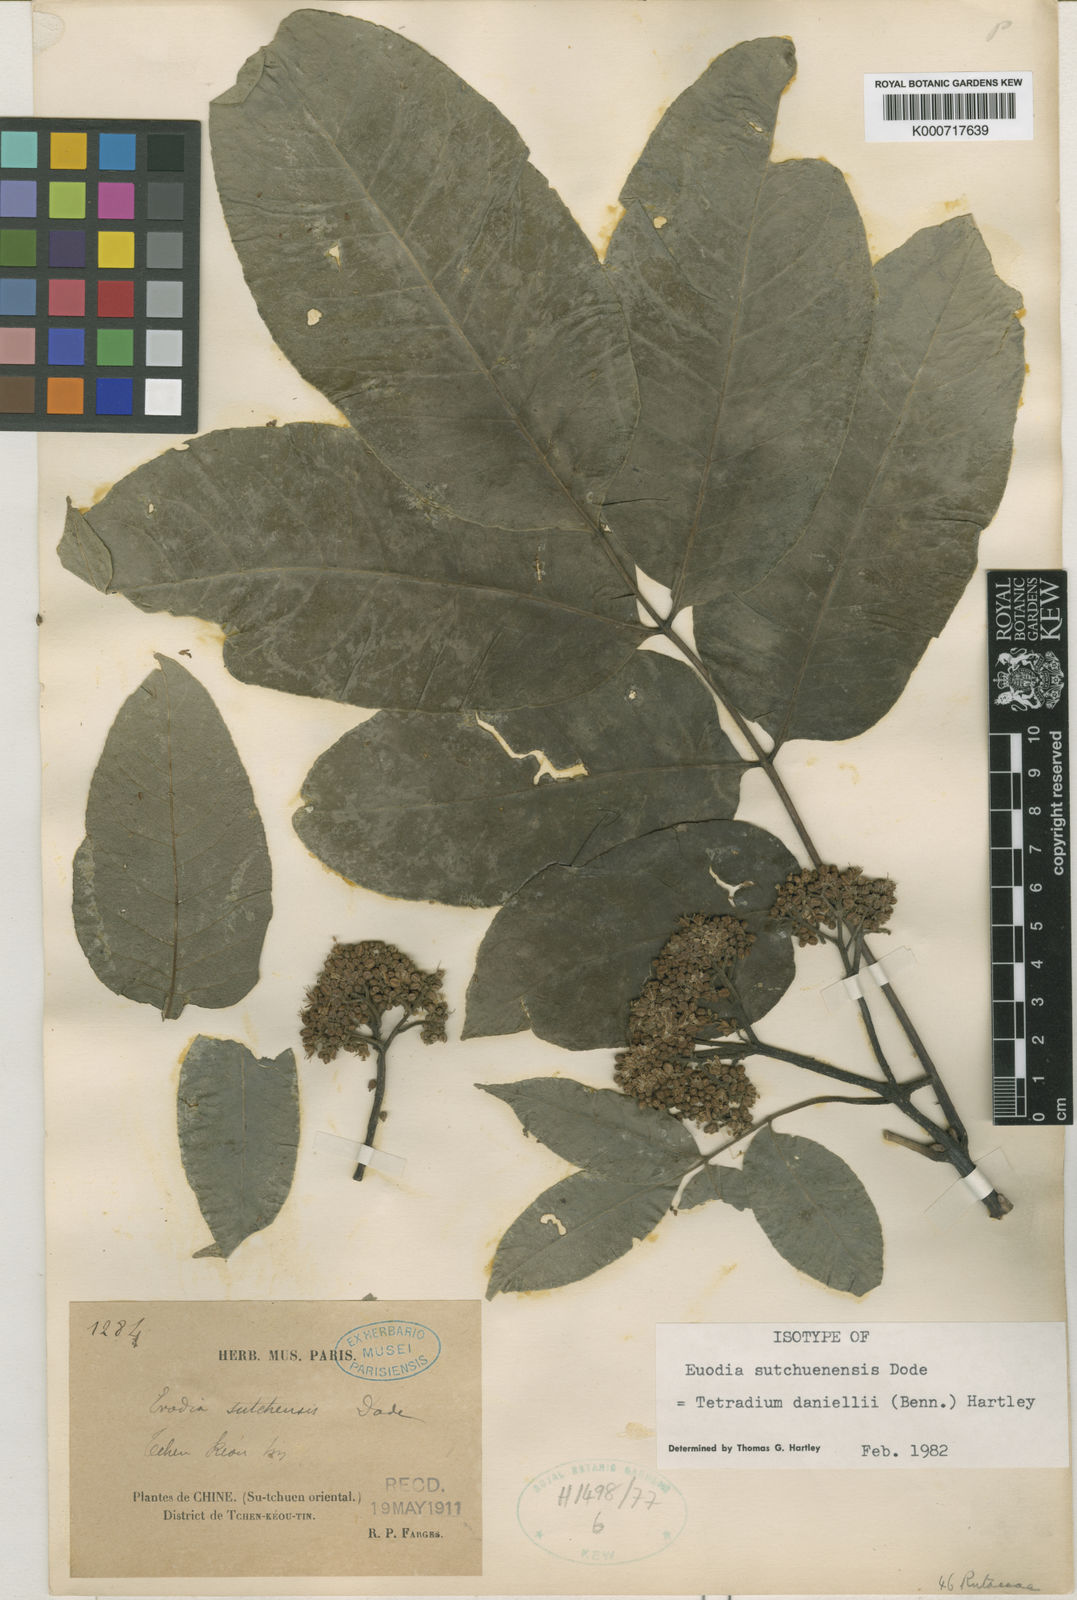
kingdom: Plantae
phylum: Tracheophyta
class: Magnoliopsida
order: Sapindales
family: Rutaceae
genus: Tetradium
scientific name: Tetradium daniellii
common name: Bee-bee tree
